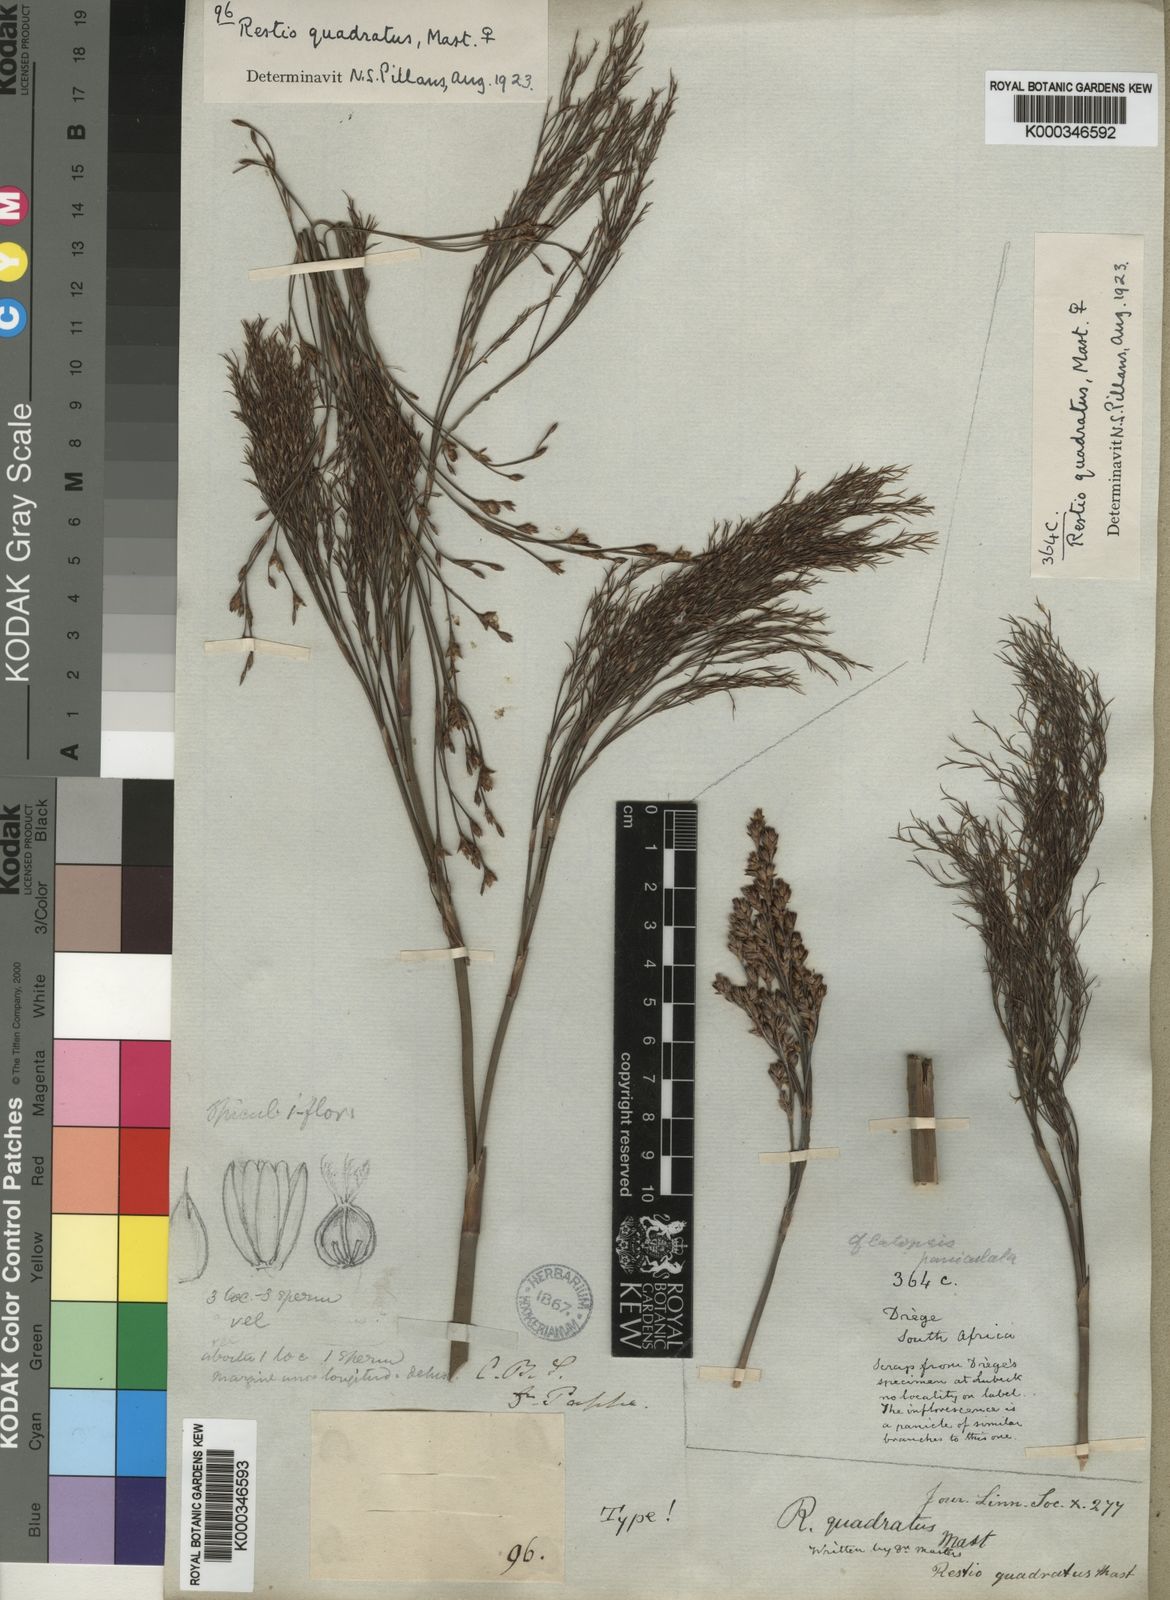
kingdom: Plantae
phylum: Tracheophyta
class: Liliopsida
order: Poales
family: Restionaceae
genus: Restio
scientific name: Restio quadratus
